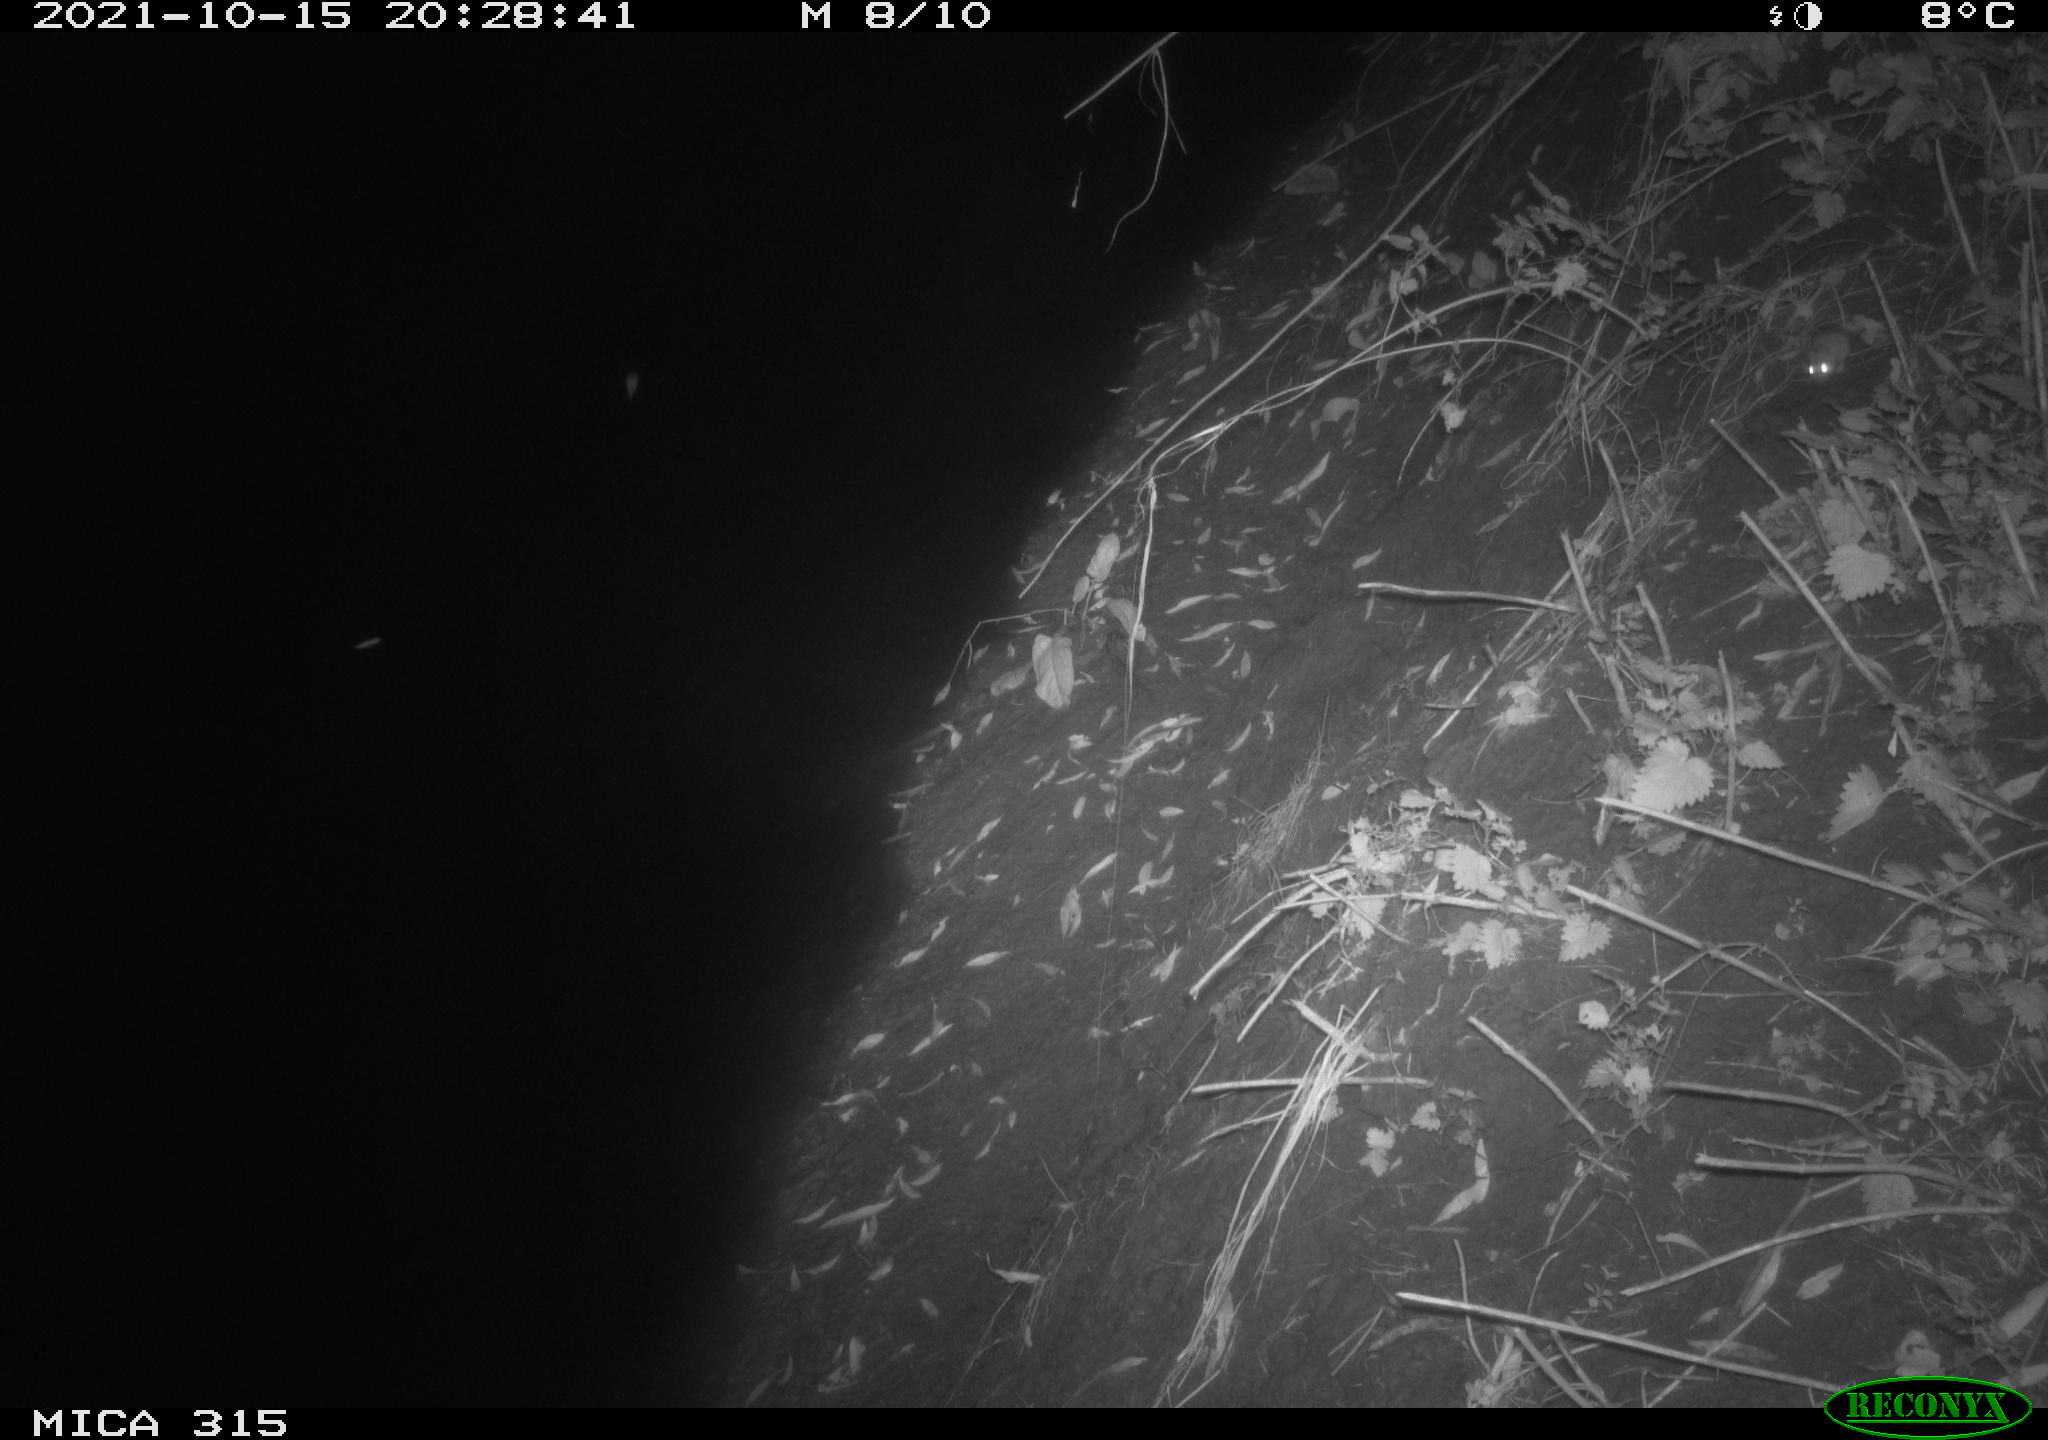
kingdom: Animalia
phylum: Chordata
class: Mammalia
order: Rodentia
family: Cricetidae
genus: Myodes
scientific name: Myodes glareolus
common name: Bank vole
